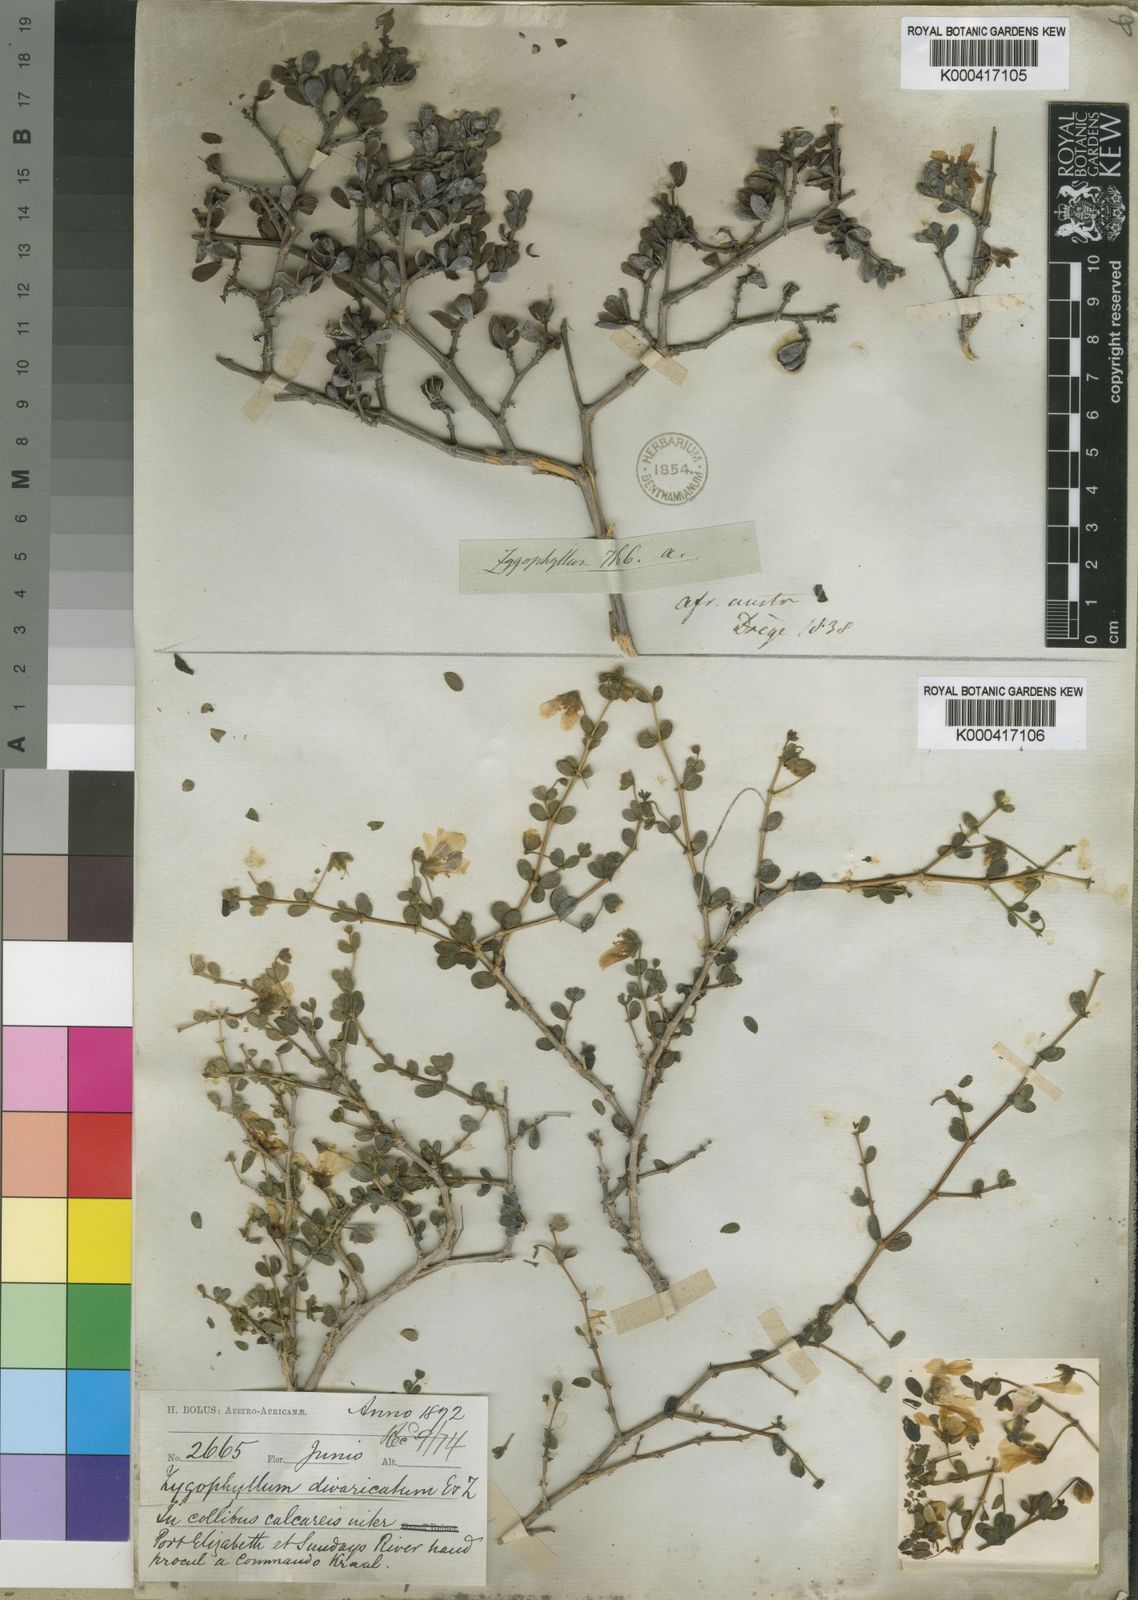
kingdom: Plantae
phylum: Tracheophyta
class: Magnoliopsida
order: Zygophyllales
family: Zygophyllaceae
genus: Roepera
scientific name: Roepera divaricata
